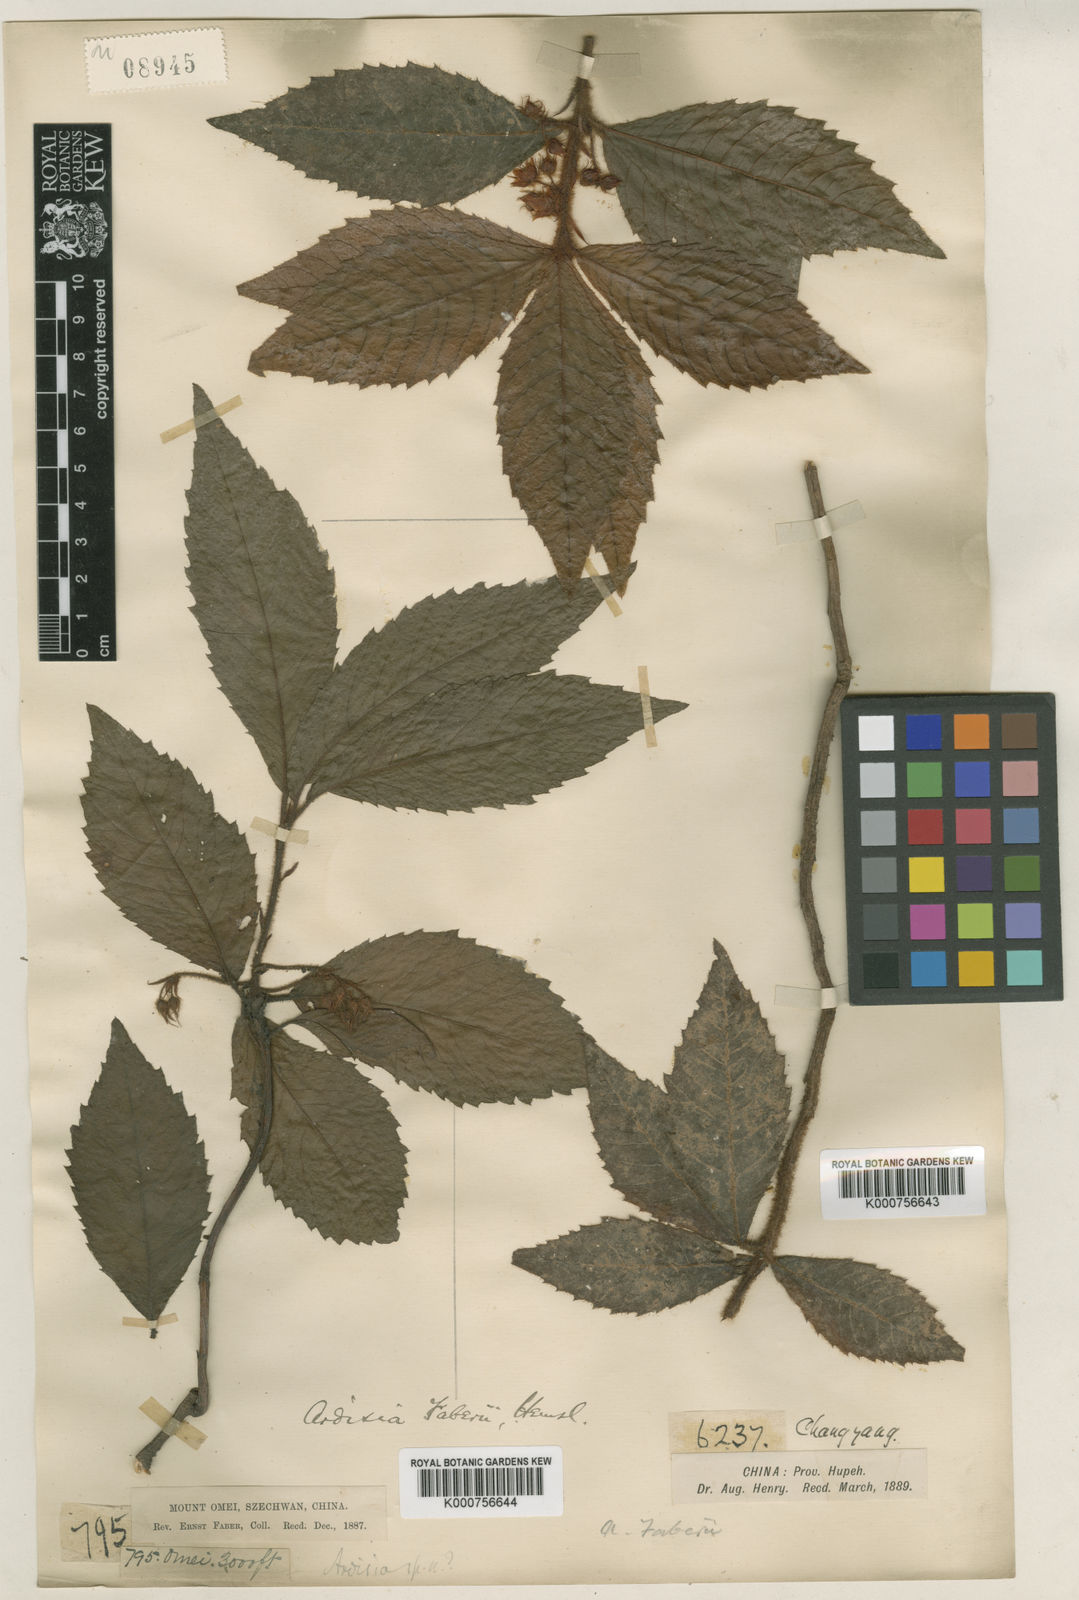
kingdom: Plantae
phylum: Tracheophyta
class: Magnoliopsida
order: Ericales
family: Primulaceae
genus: Ardisia
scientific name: Ardisia faberi
